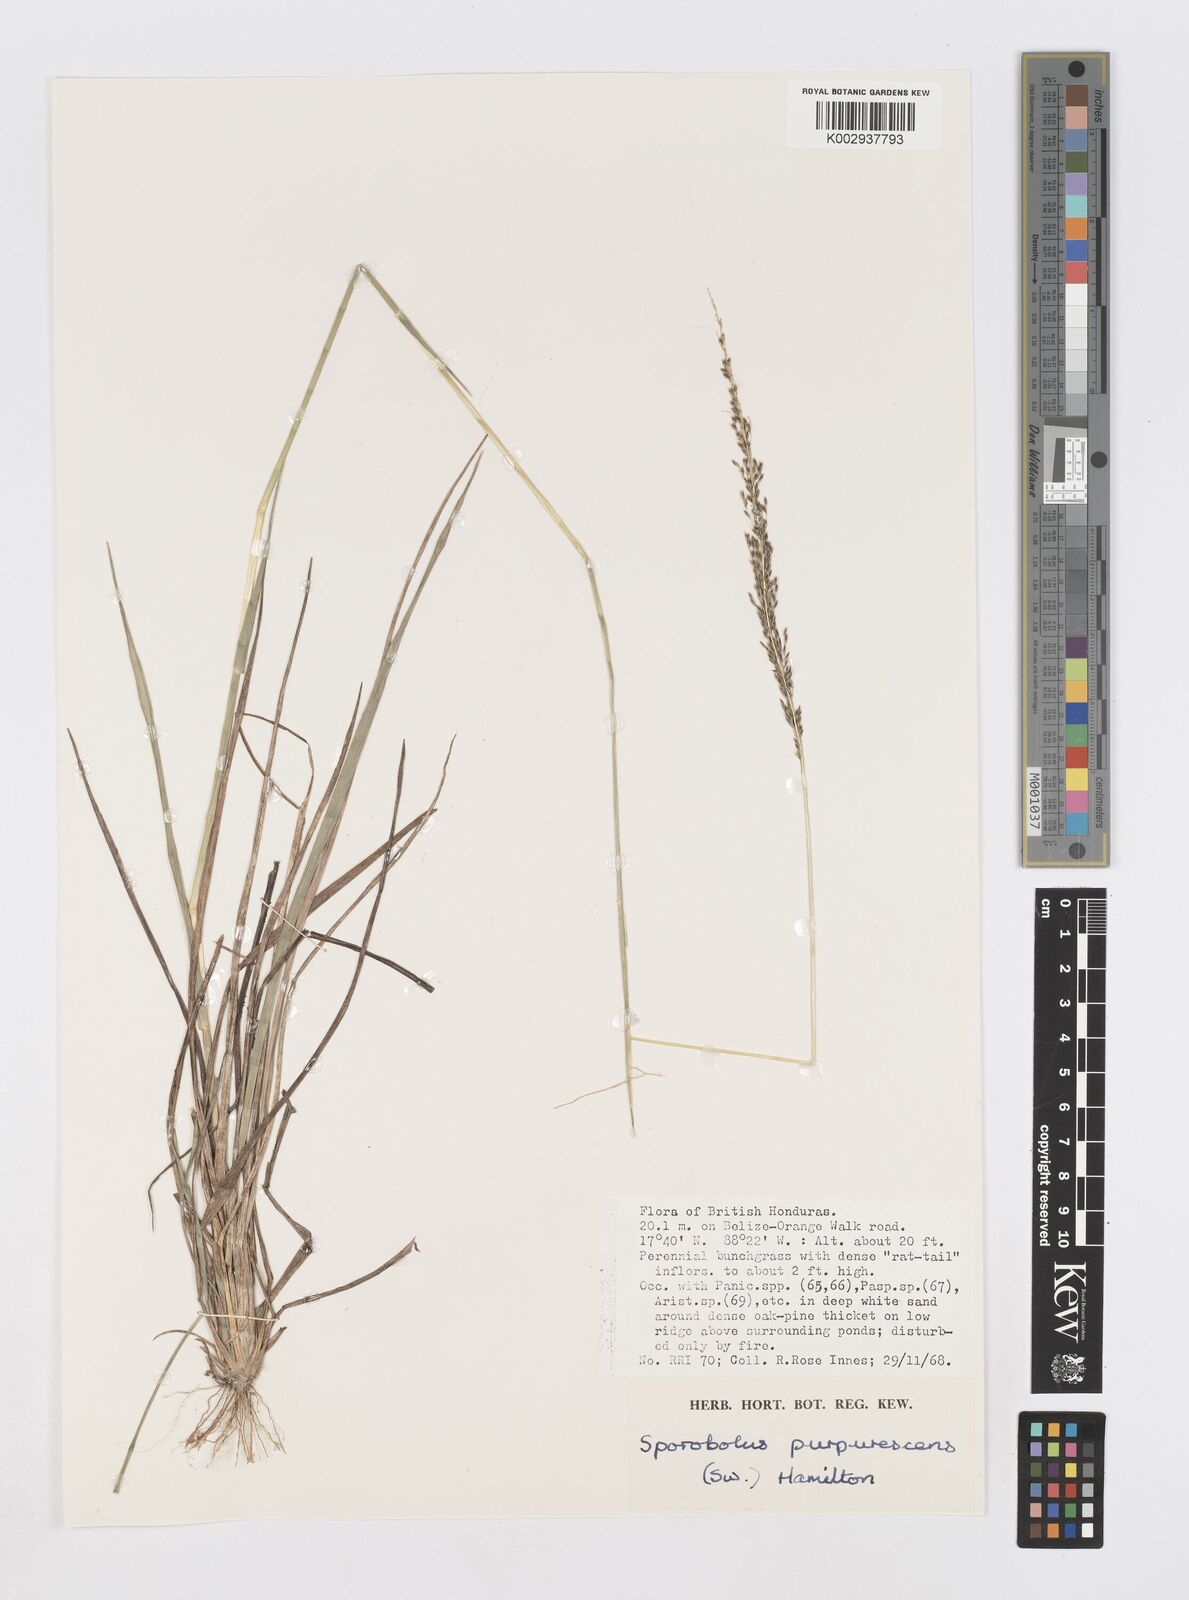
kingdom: Plantae
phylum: Tracheophyta
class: Liliopsida
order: Poales
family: Poaceae
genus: Sporobolus
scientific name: Sporobolus purpurascens
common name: Purple dropseed
